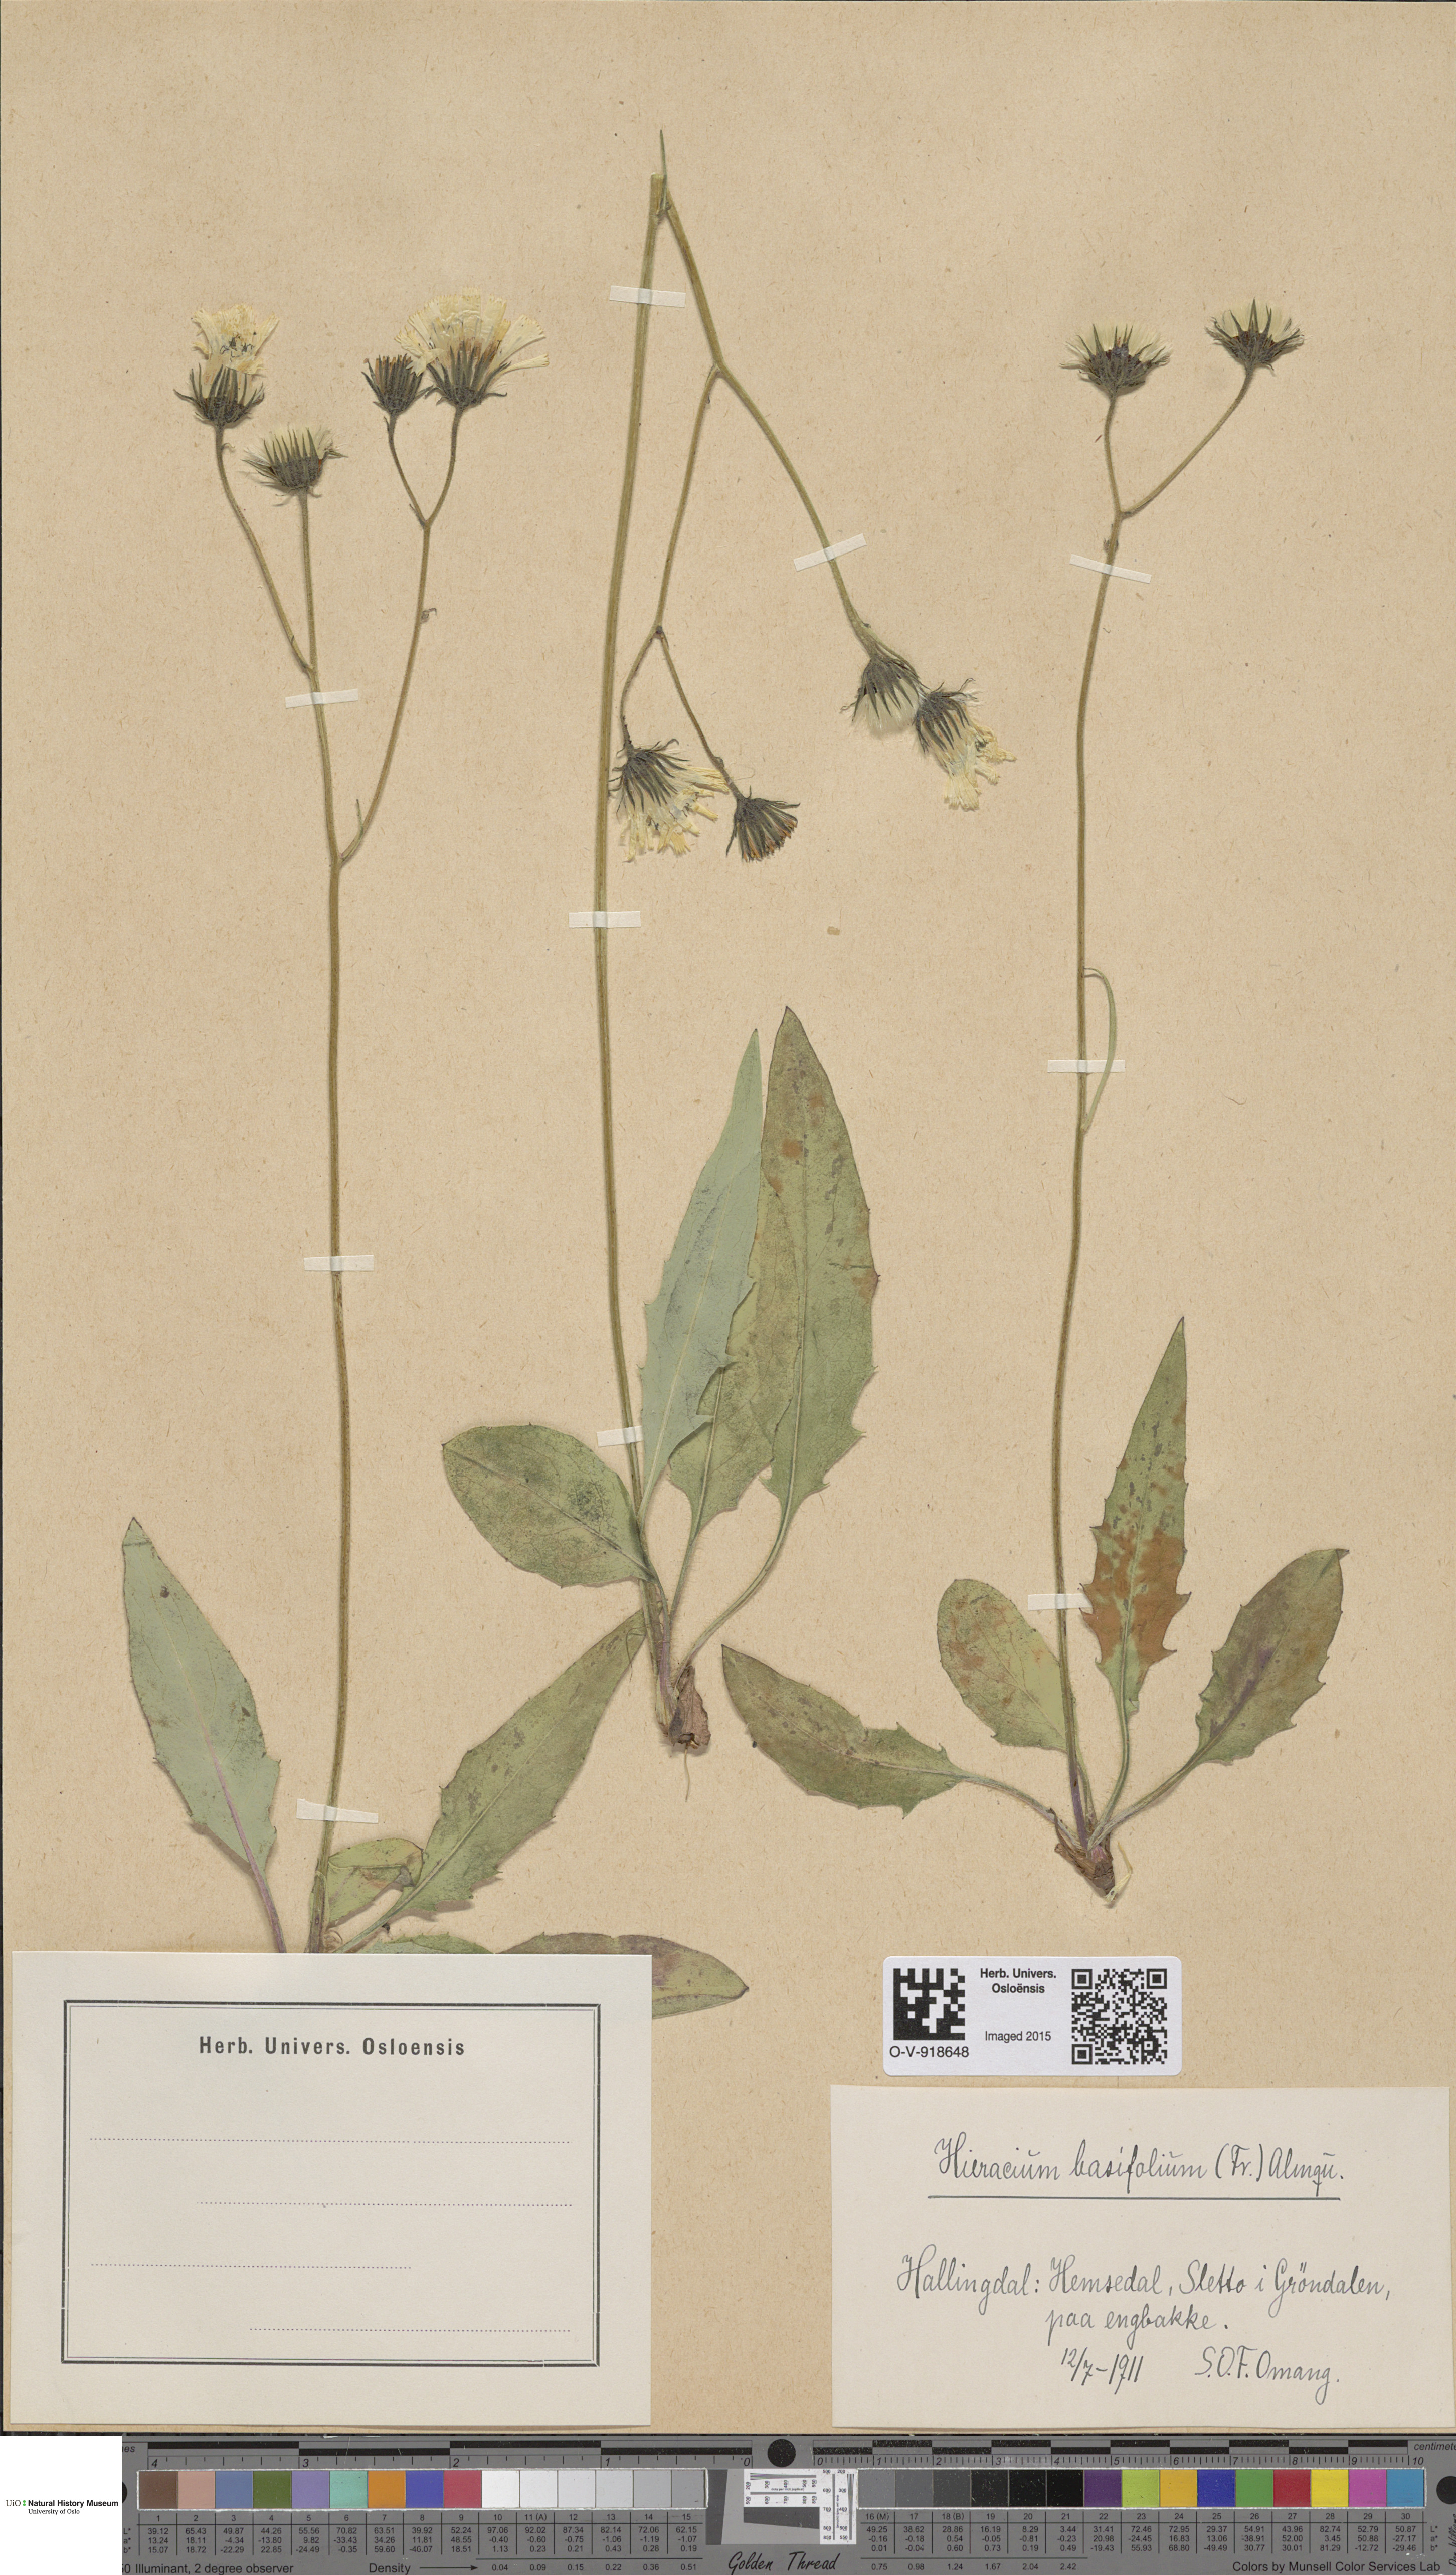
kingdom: Plantae
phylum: Tracheophyta
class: Magnoliopsida
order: Asterales
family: Asteraceae
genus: Hieracium
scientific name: Hieracium basifolium
